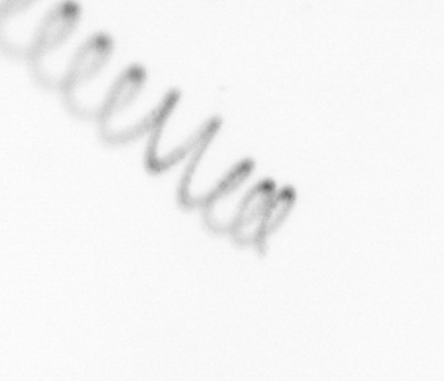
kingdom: Chromista
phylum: Ochrophyta
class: Bacillariophyceae
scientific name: Bacillariophyceae
